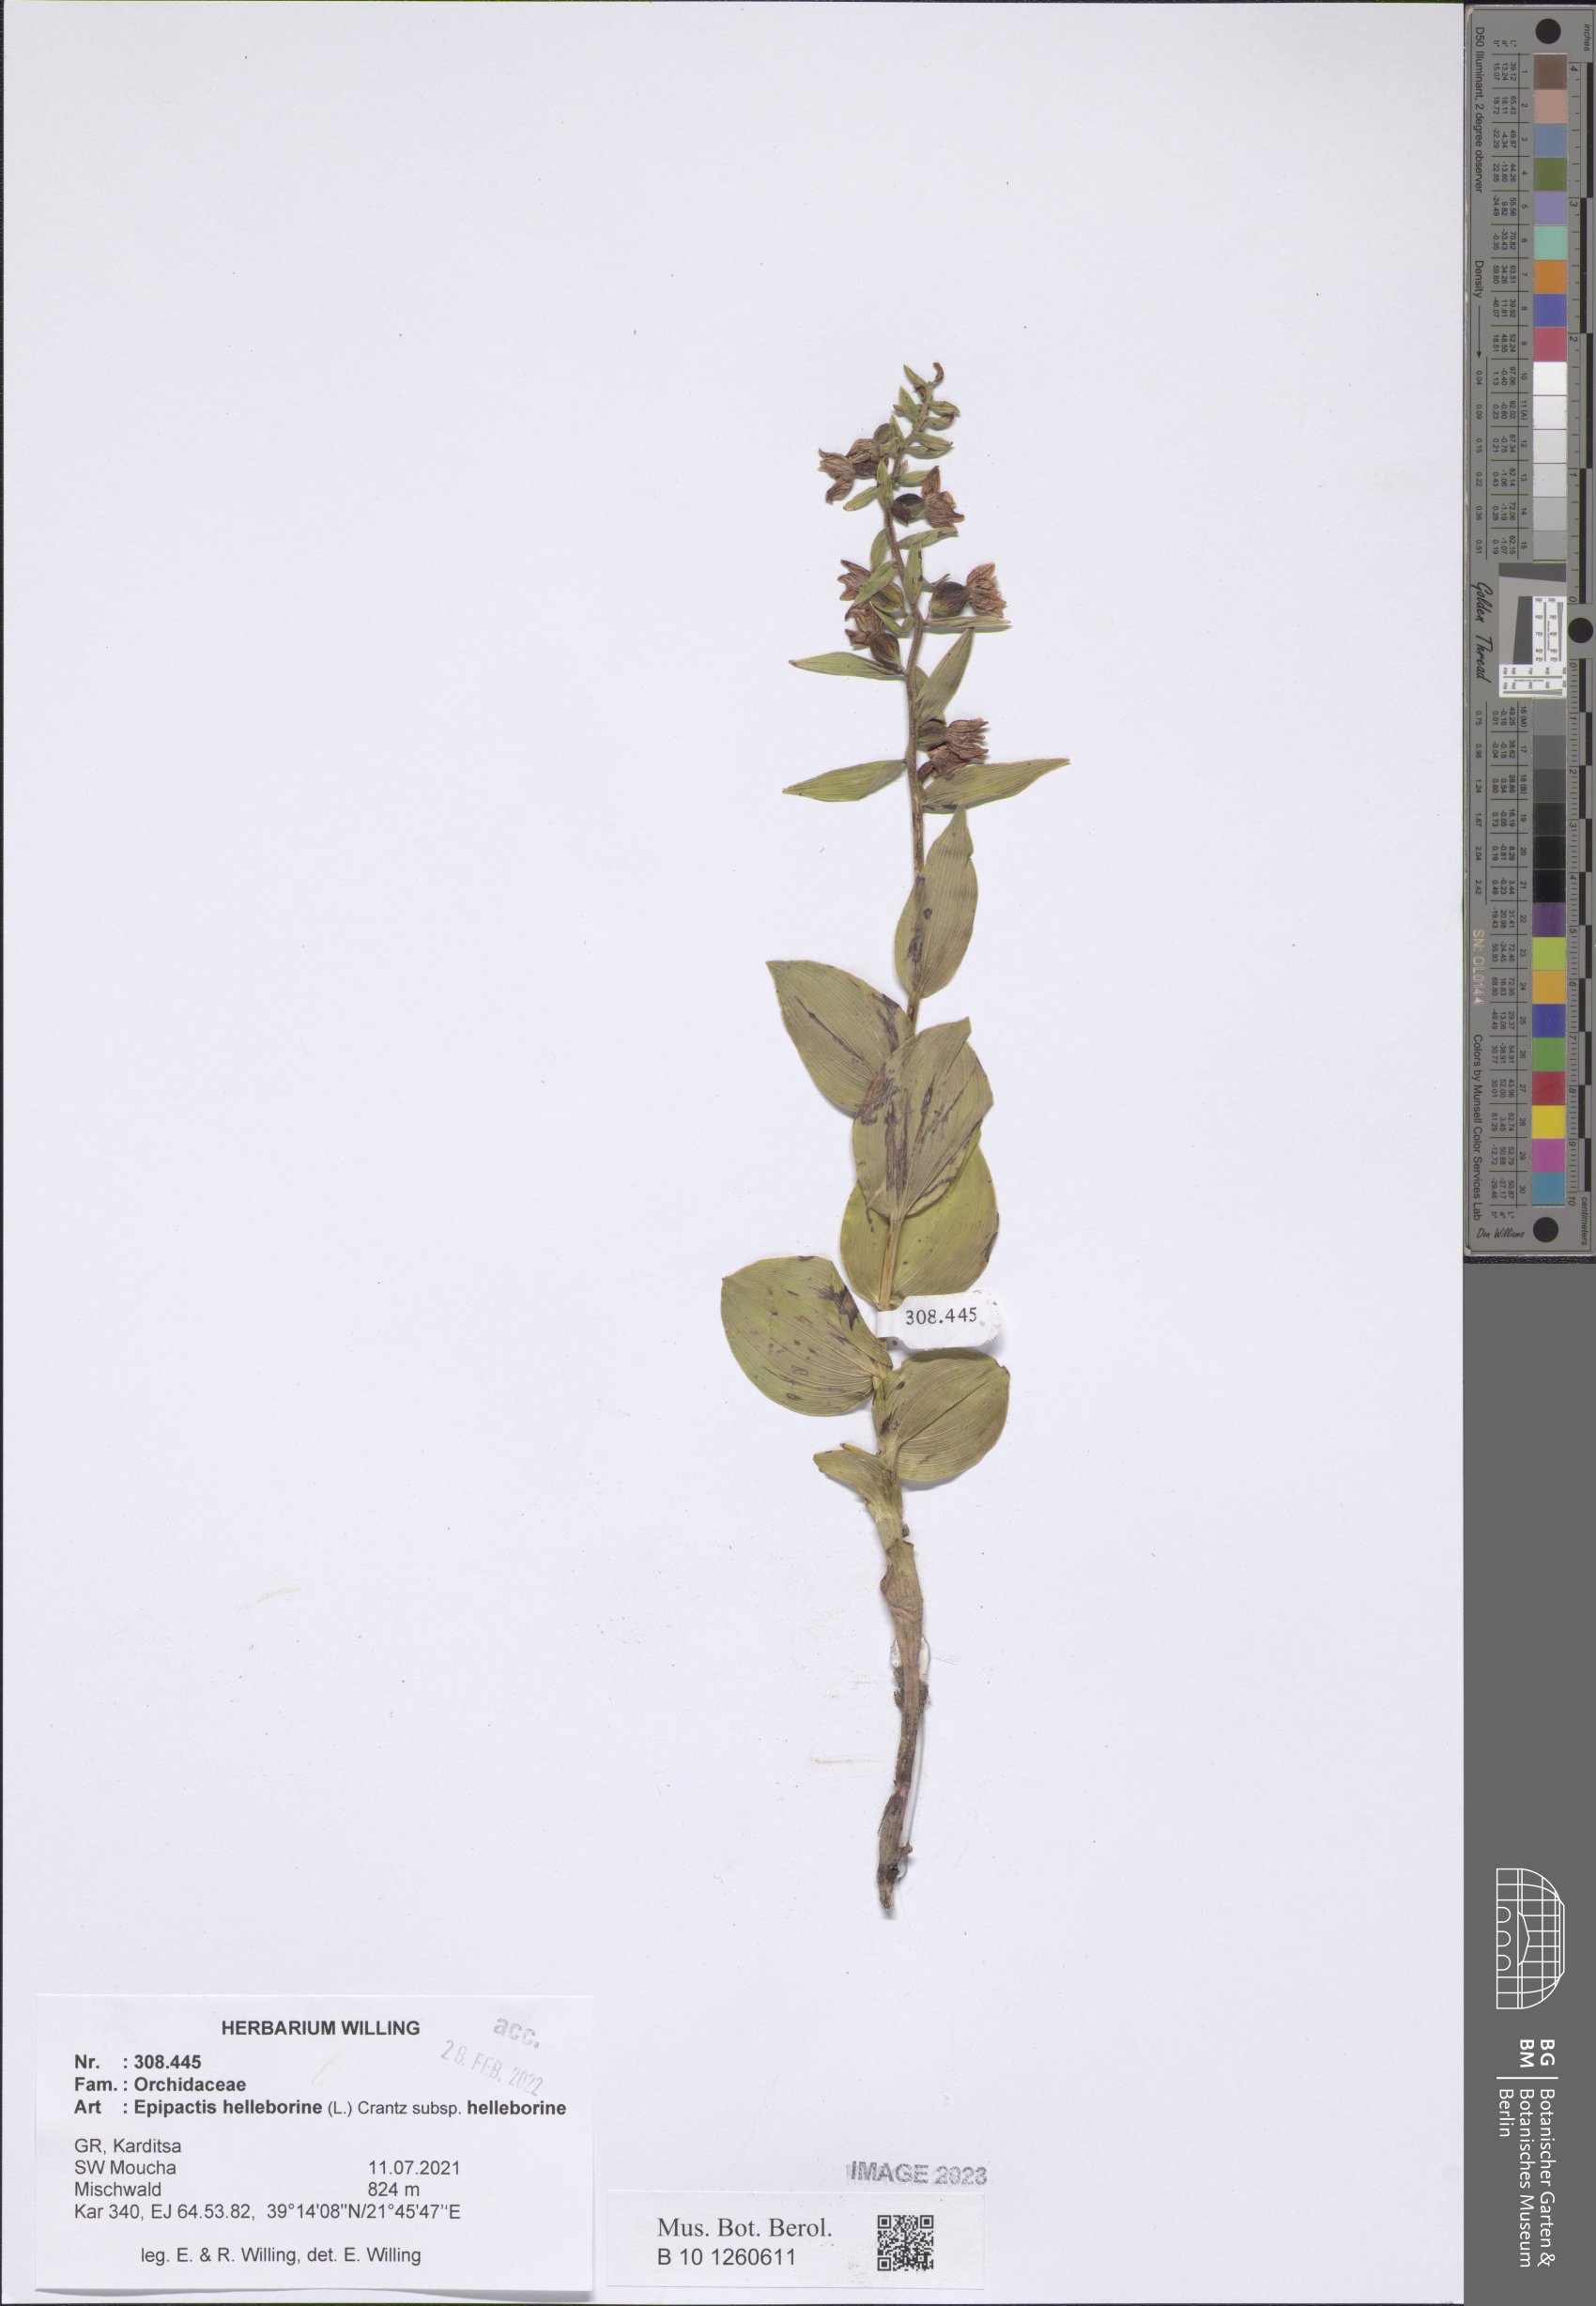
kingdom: Plantae
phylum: Tracheophyta
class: Liliopsida
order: Asparagales
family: Orchidaceae
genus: Epipactis
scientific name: Epipactis helleborine
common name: Broad-leaved helleborine
